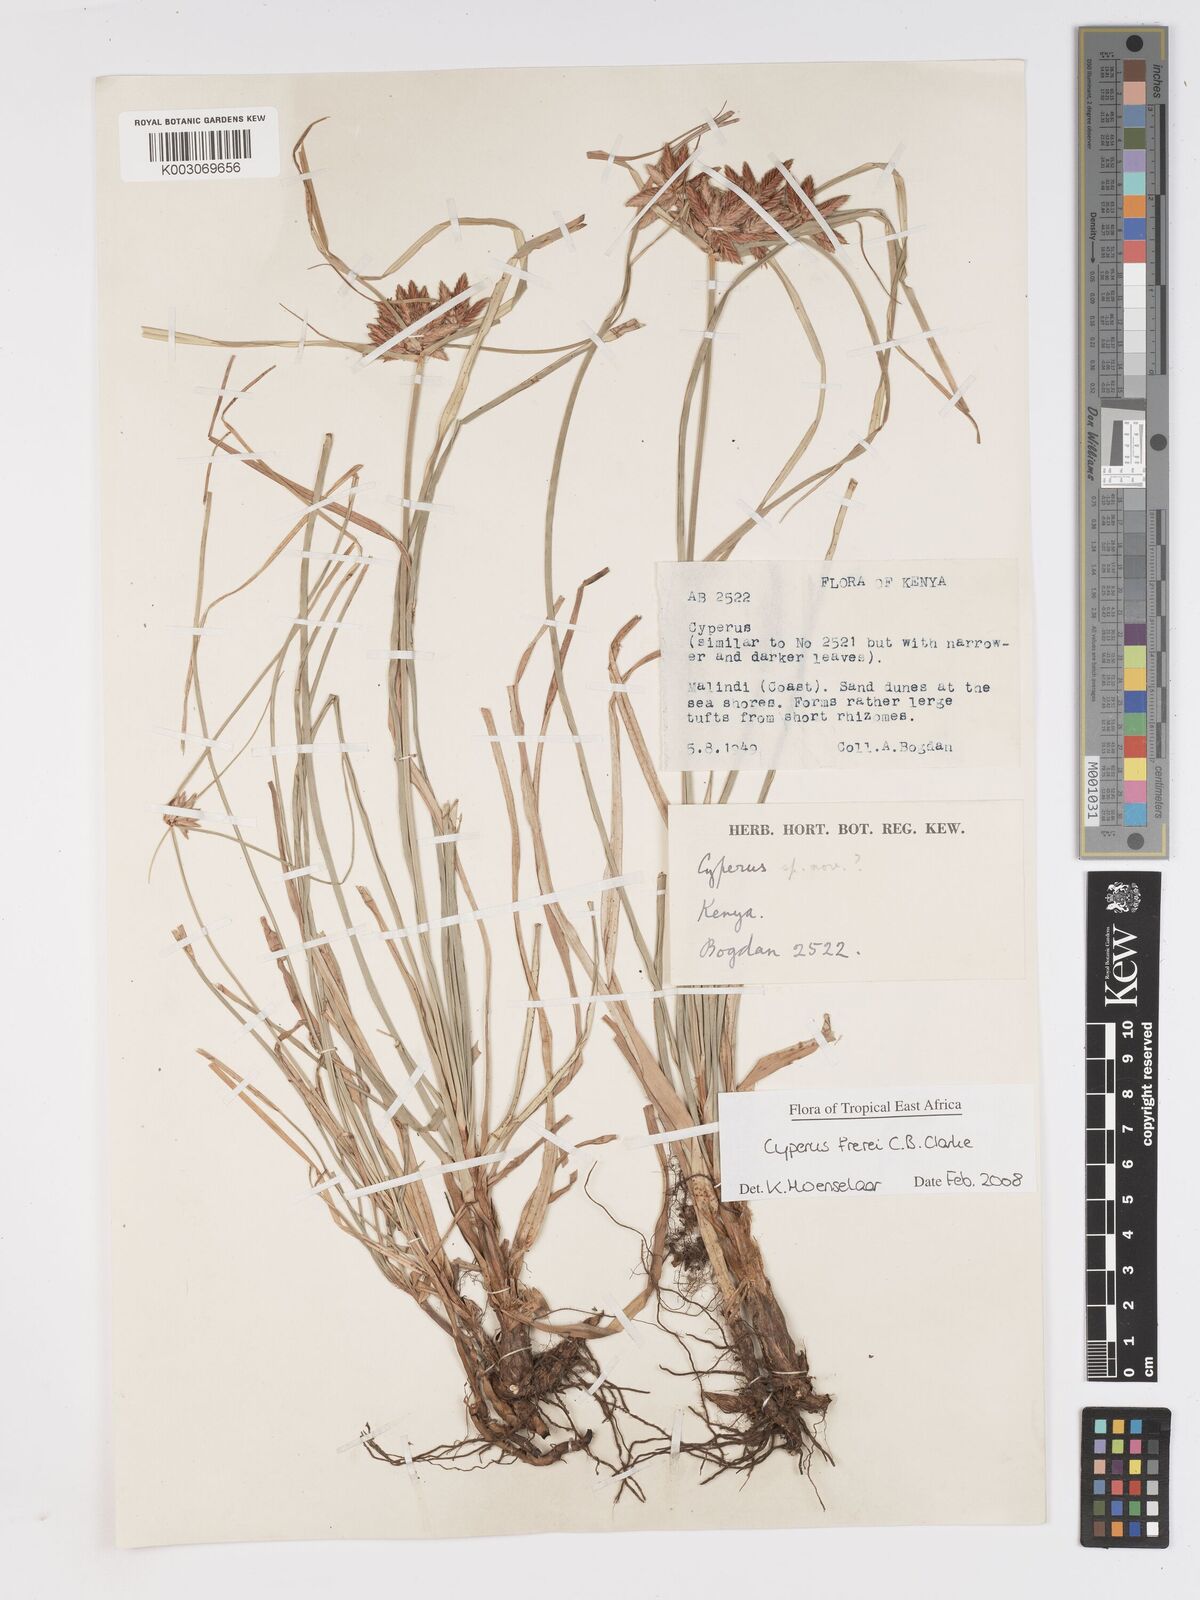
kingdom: Plantae
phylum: Tracheophyta
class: Liliopsida
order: Poales
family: Cyperaceae
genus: Cyperus
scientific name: Cyperus crassipes
